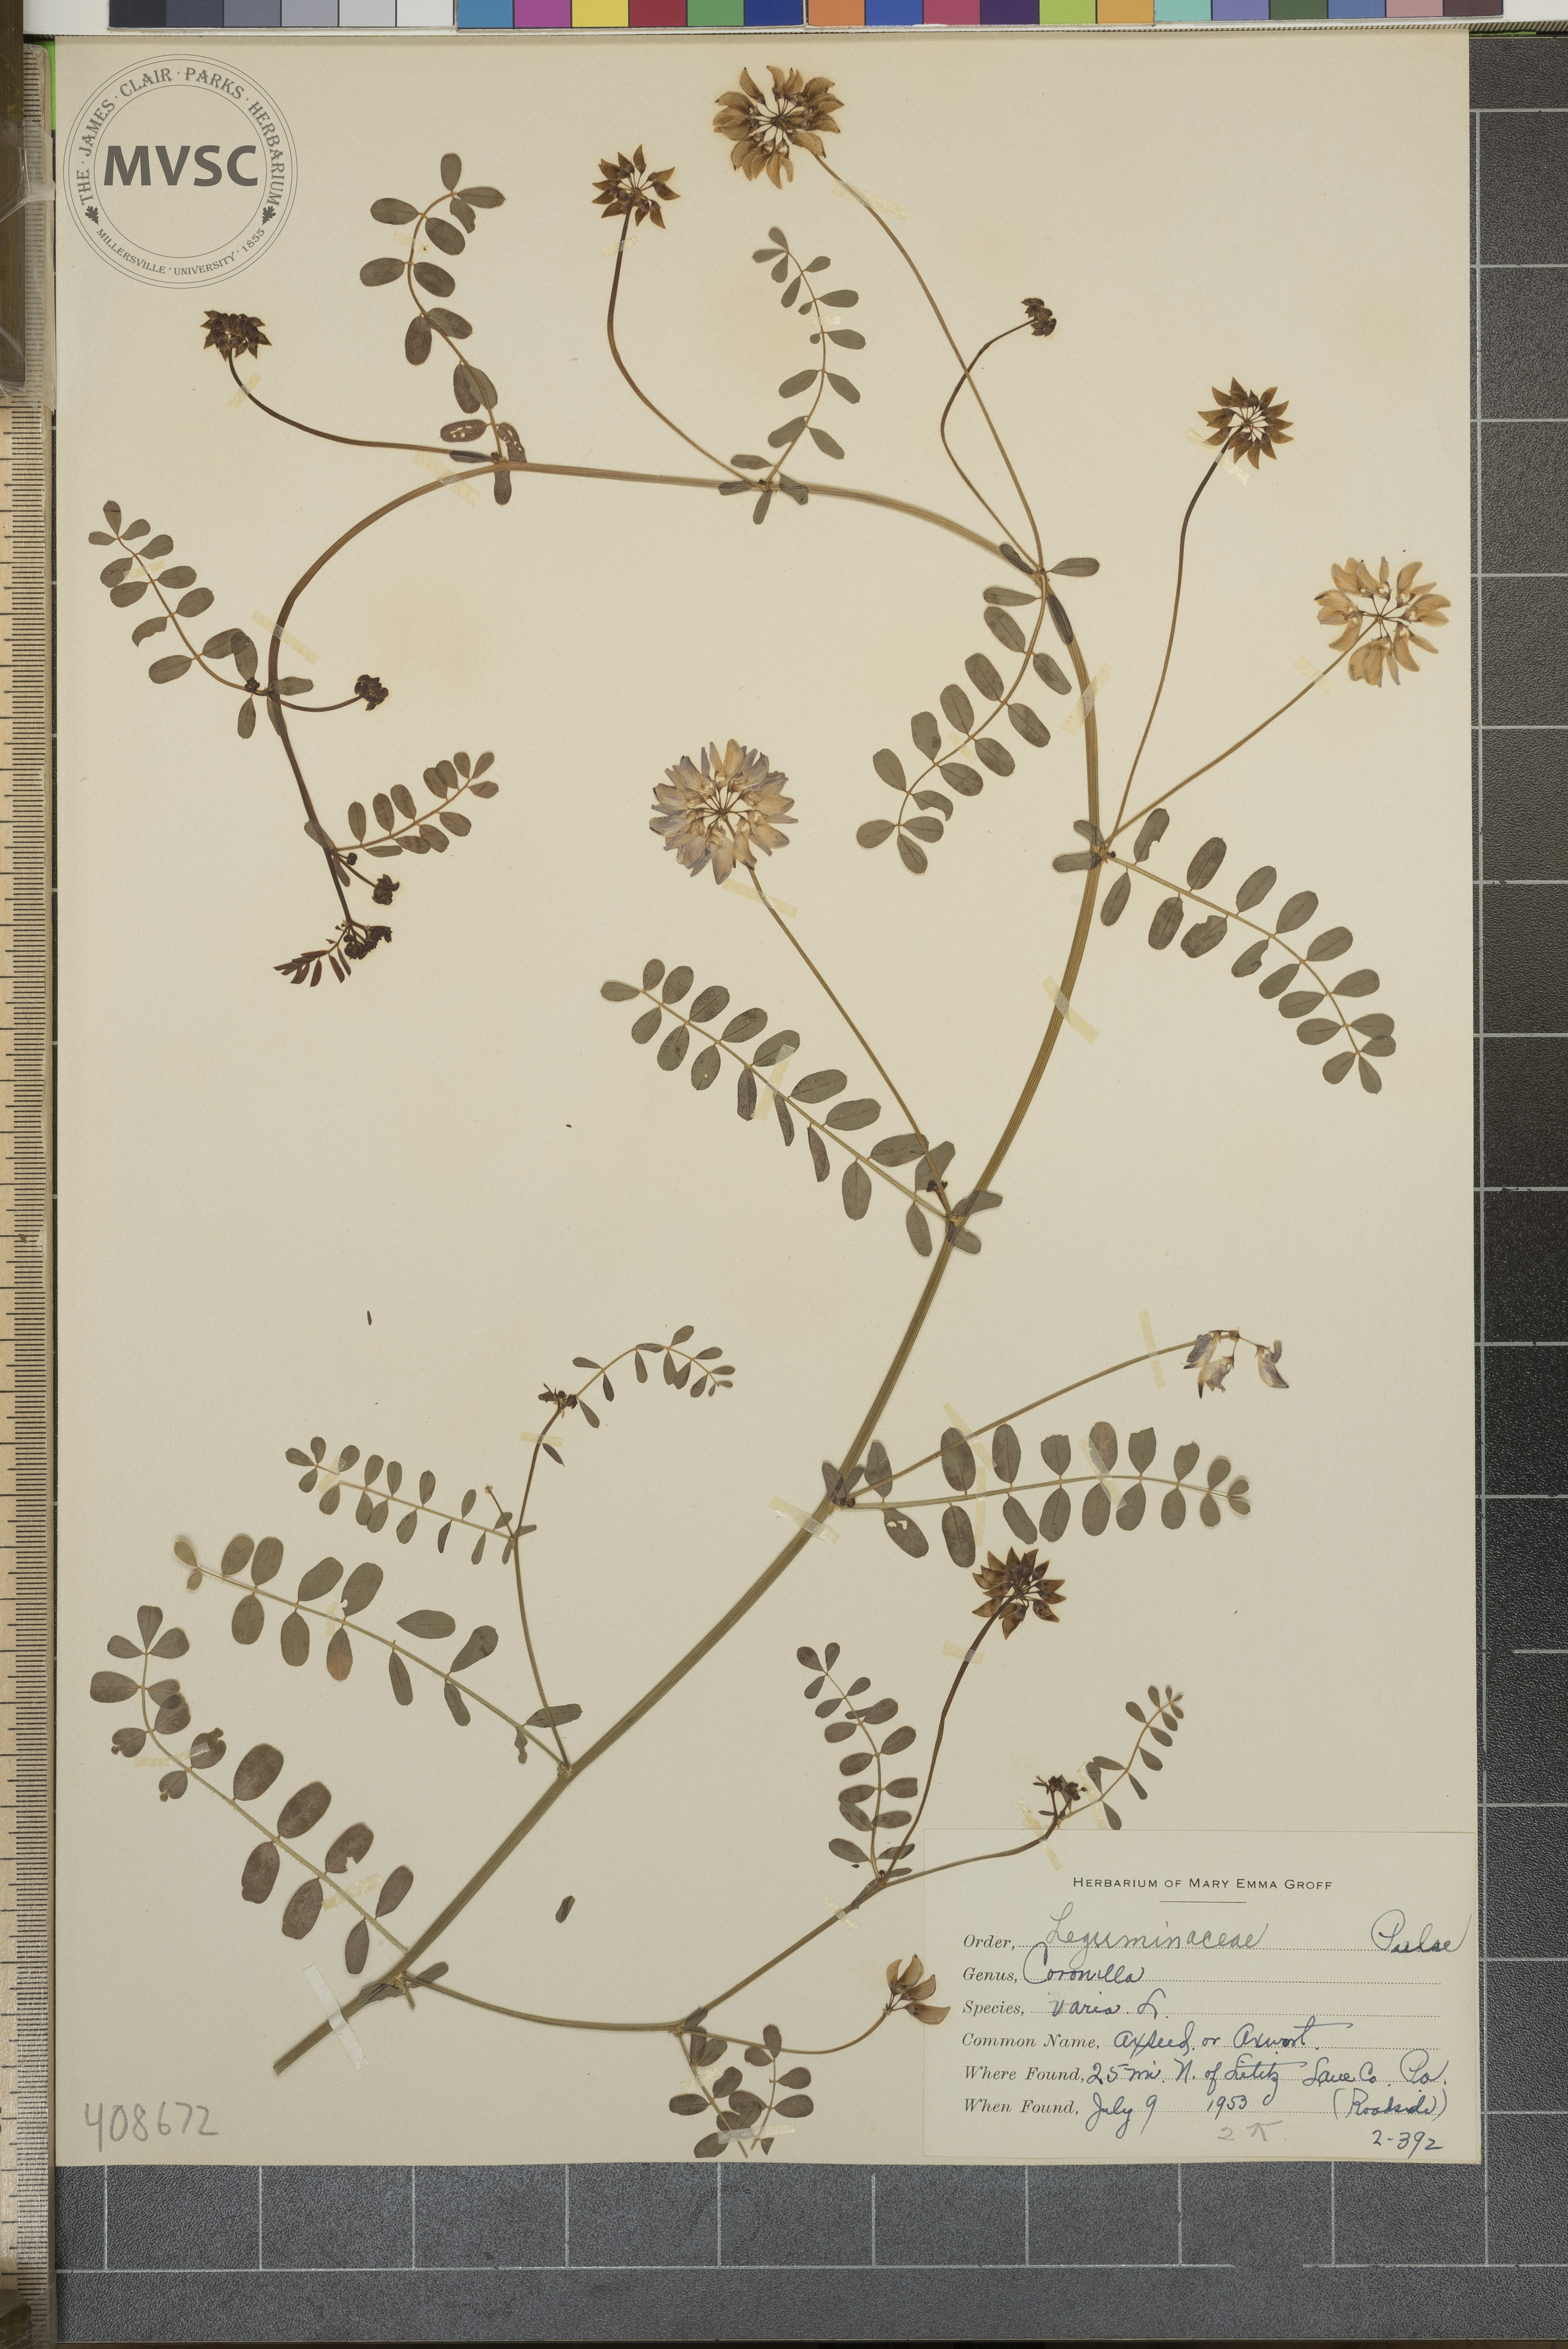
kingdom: Plantae
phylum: Tracheophyta
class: Magnoliopsida
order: Fabales
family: Fabaceae
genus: Coronilla
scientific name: Coronilla varia
